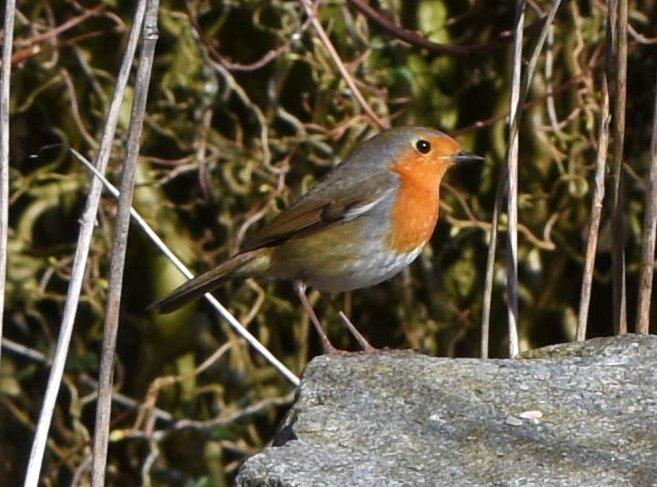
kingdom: Animalia
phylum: Chordata
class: Aves
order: Passeriformes
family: Muscicapidae
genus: Erithacus
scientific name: Erithacus rubecula
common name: Rødhals/rødkælk
